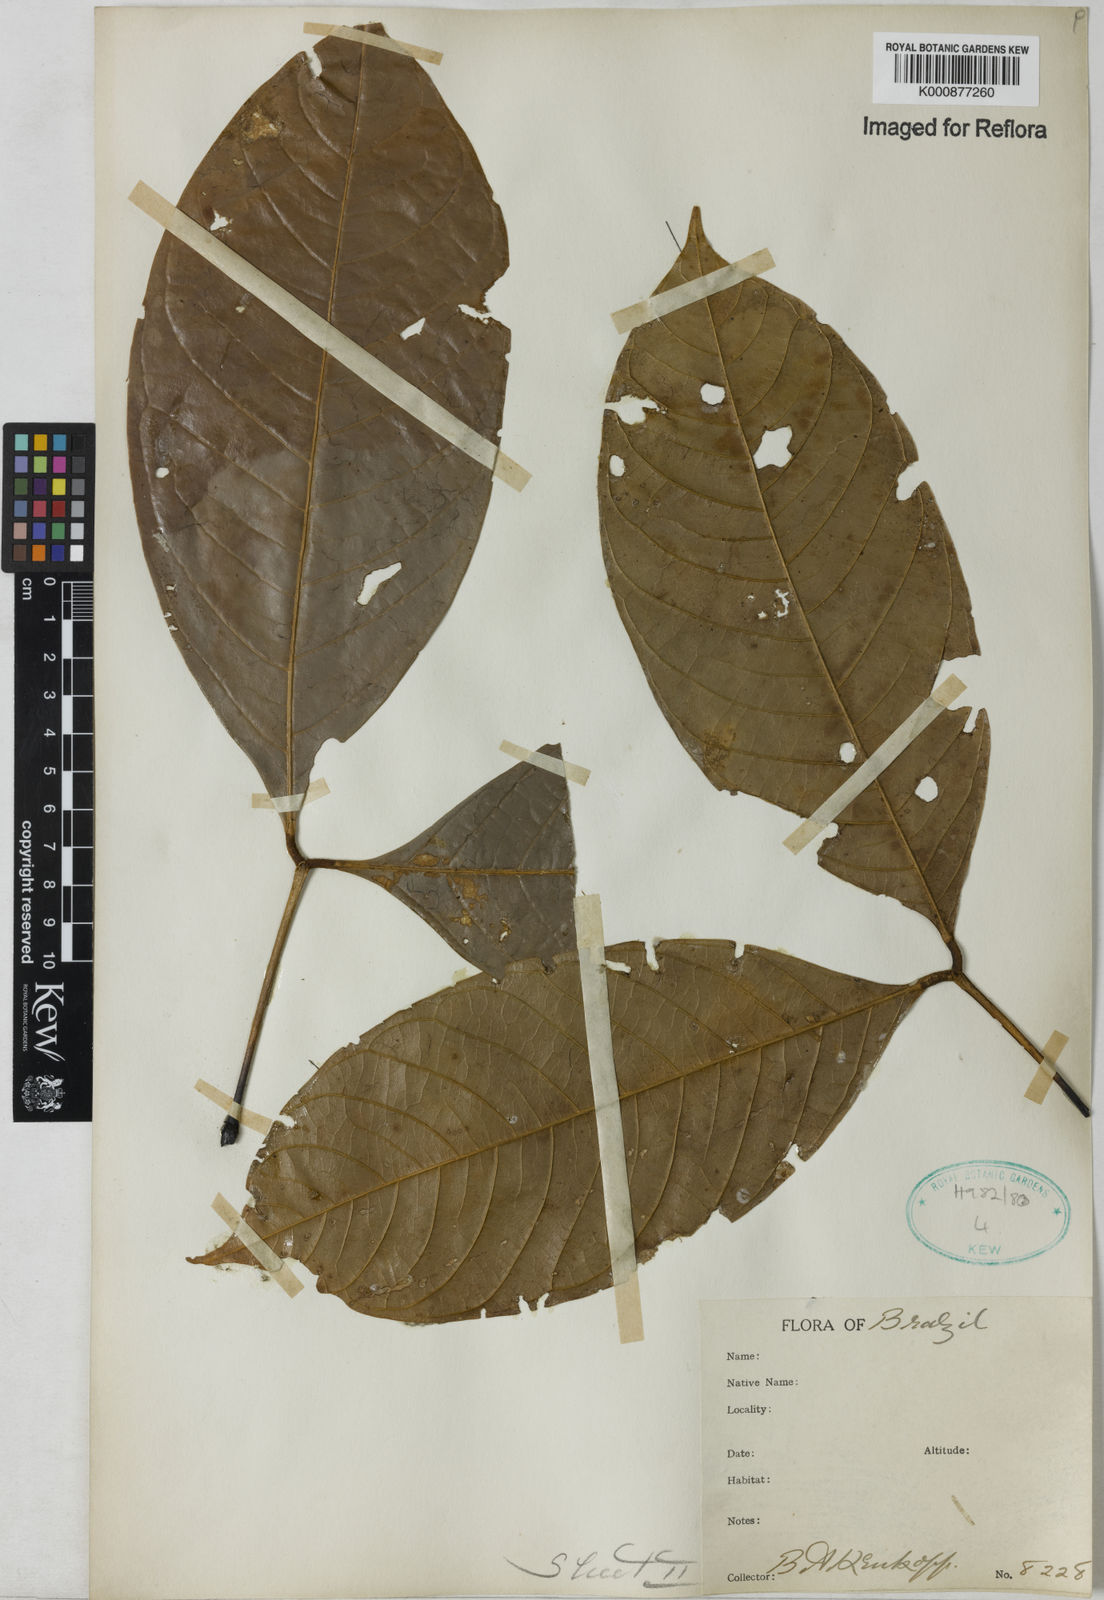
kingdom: Plantae
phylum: Tracheophyta
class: Magnoliopsida
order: Fabales
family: Fabaceae
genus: Inga
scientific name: Inga
